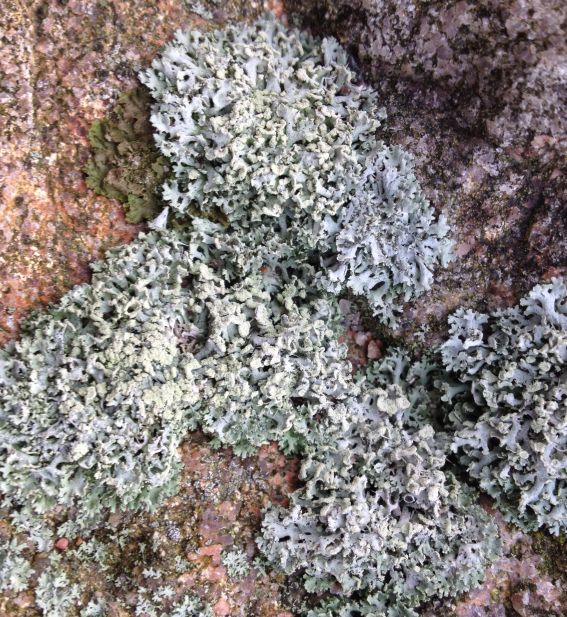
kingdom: Fungi
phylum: Ascomycota
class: Lecanoromycetes
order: Caliciales
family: Physciaceae
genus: Physcia
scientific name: Physcia tenella
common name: spæd rosetlav
